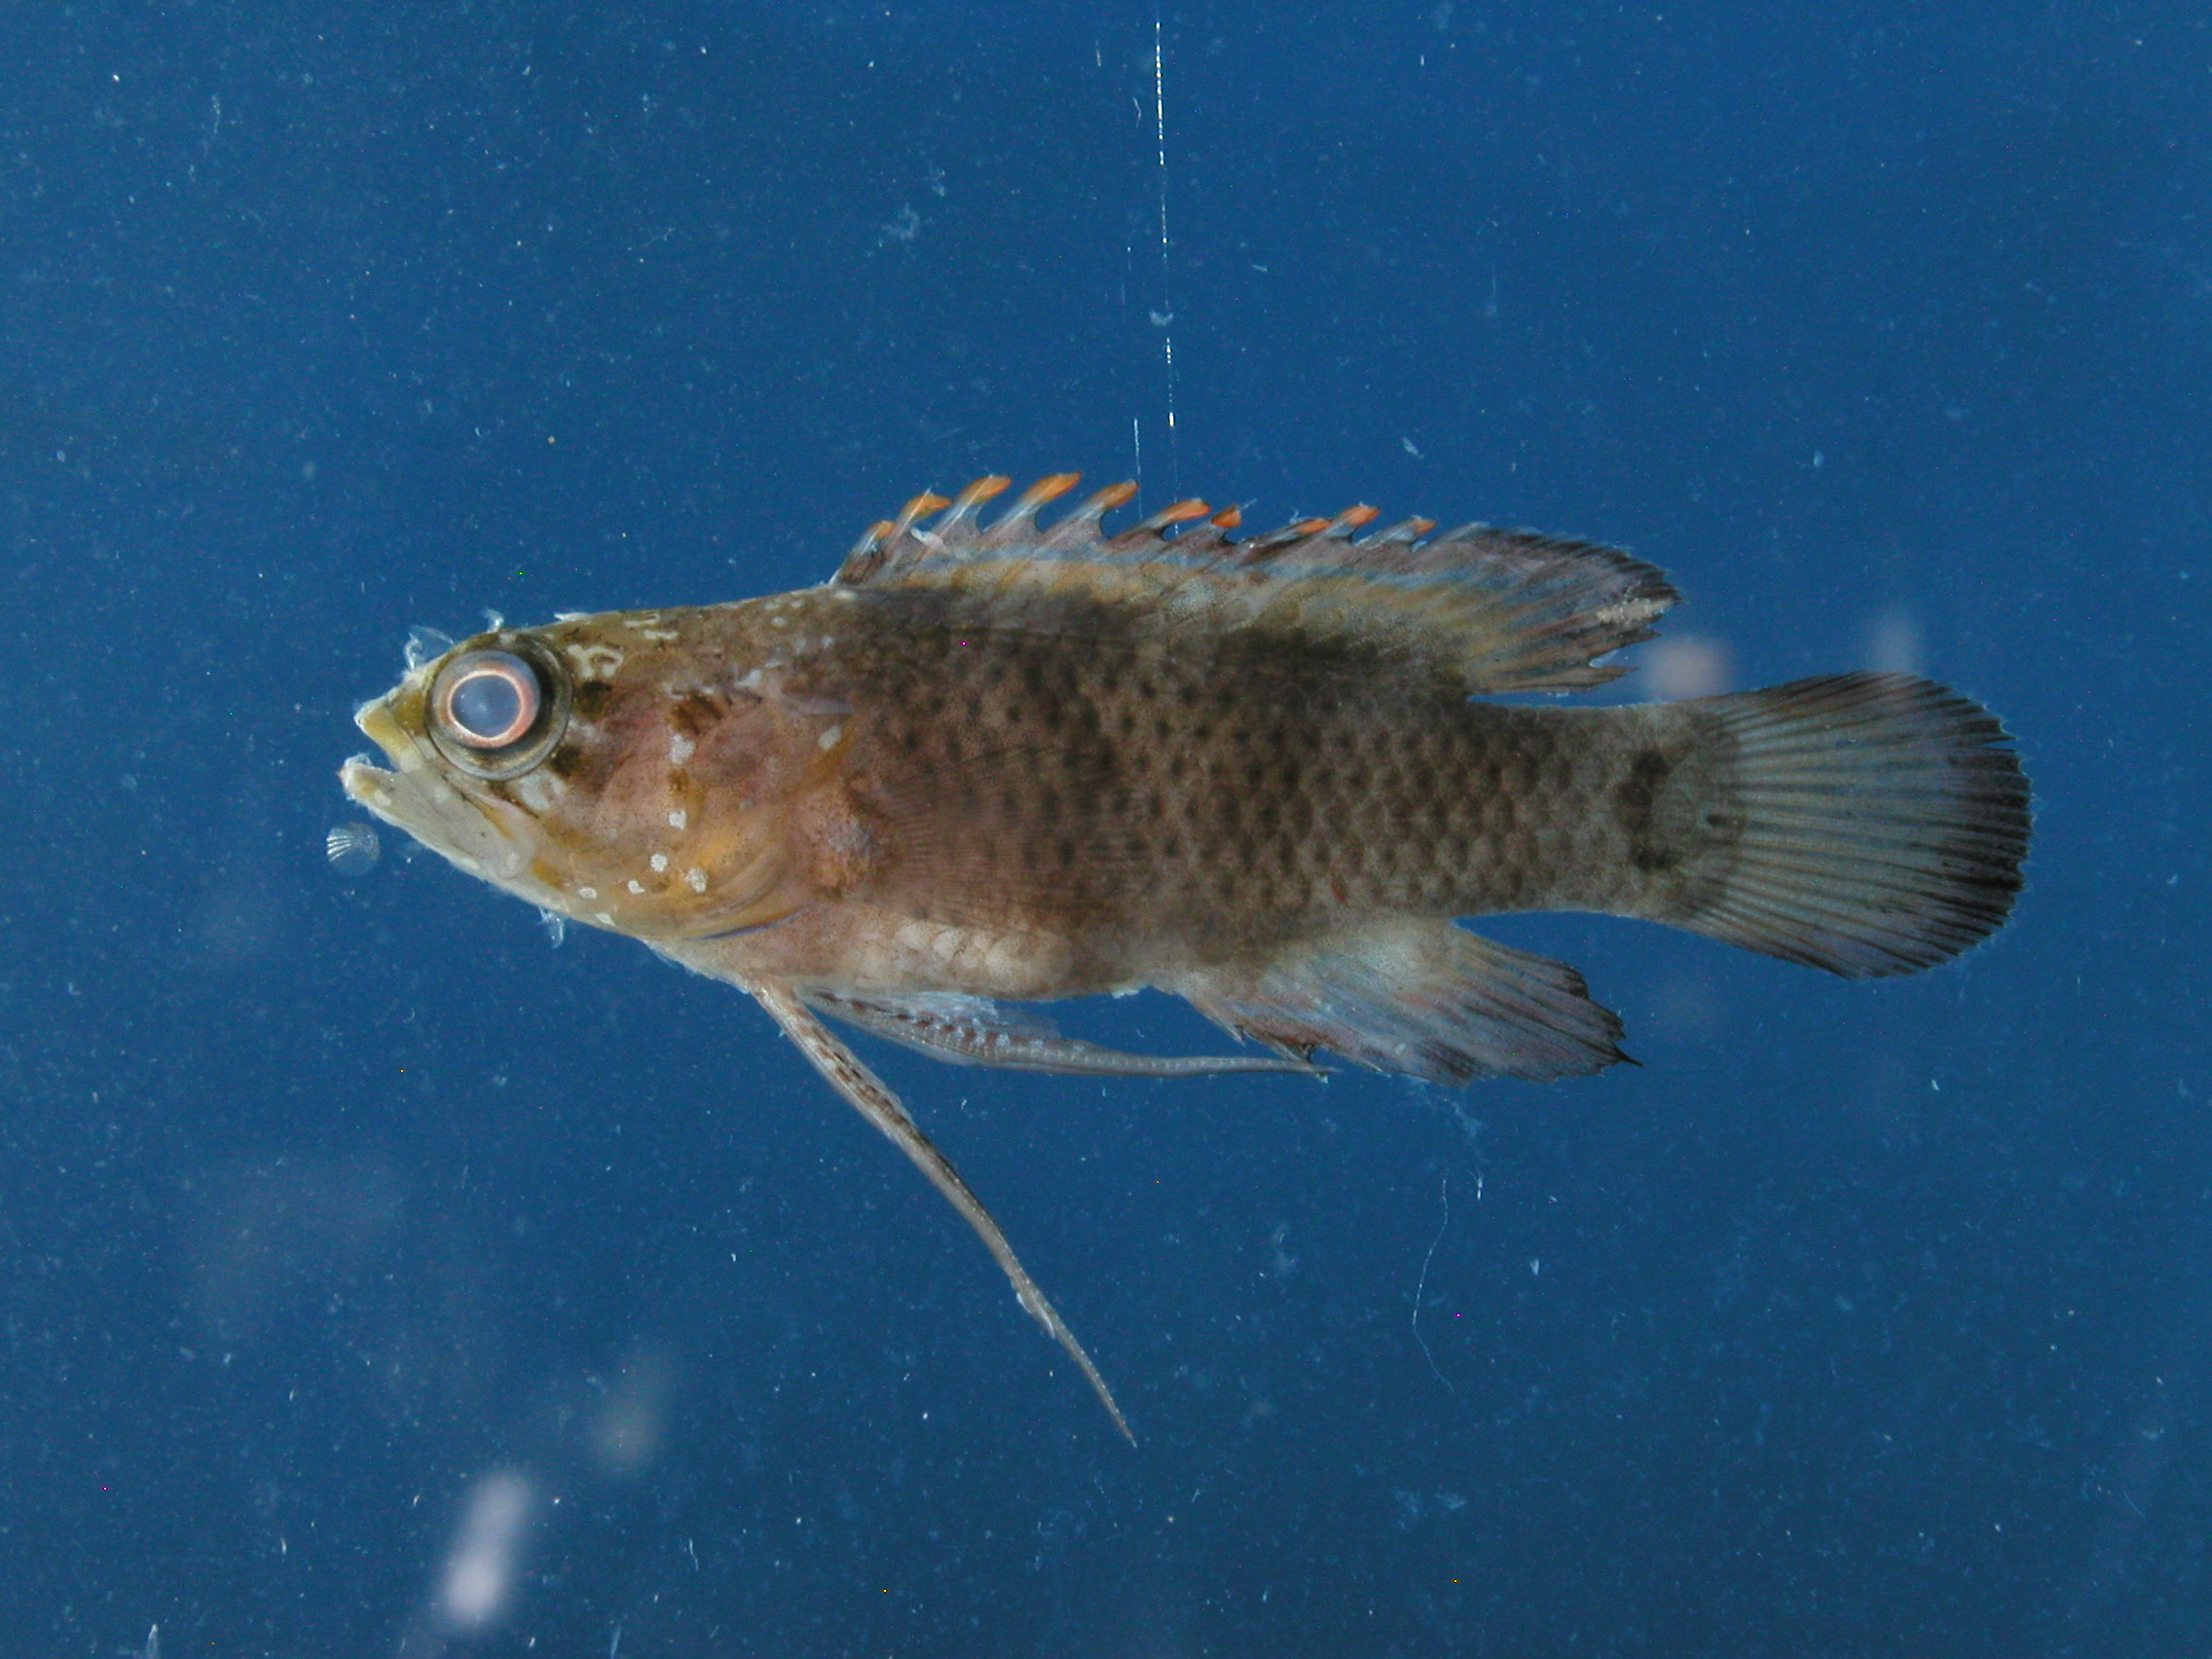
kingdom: Animalia
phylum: Chordata
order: Perciformes
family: Plesiopidae
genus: Plesiops
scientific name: Plesiops coeruleolineatus
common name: Crimsontip longfin
